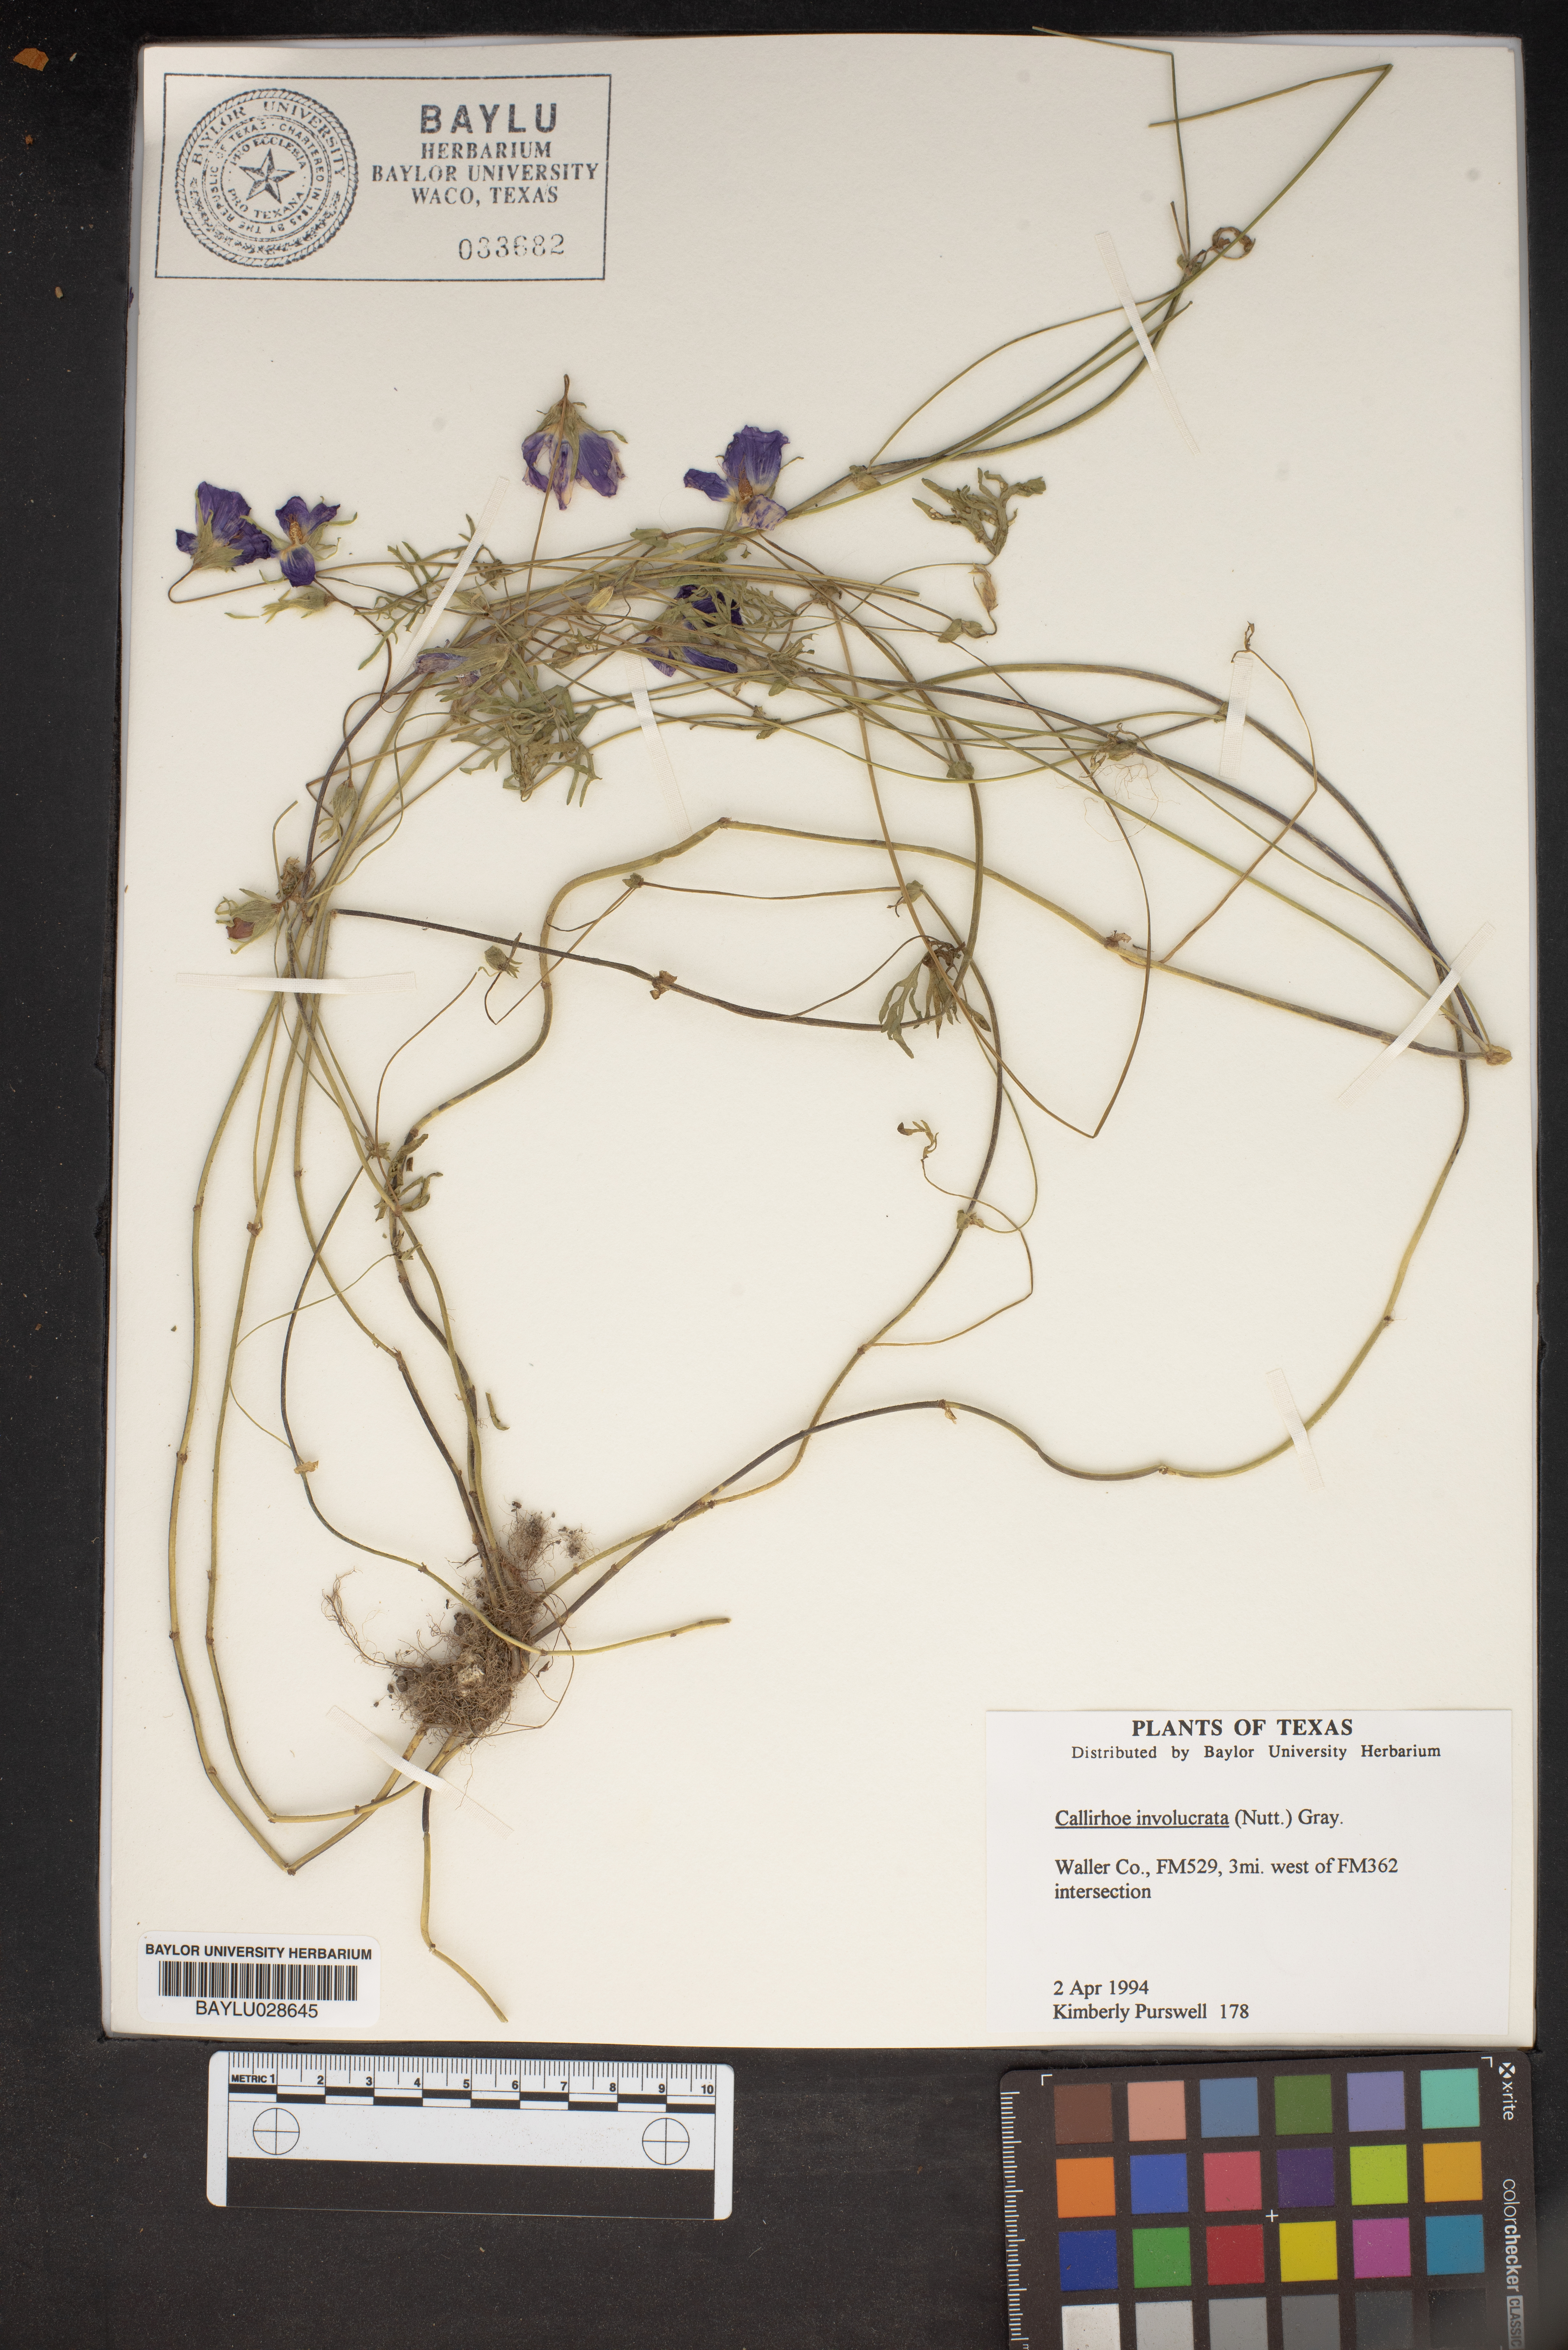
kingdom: Plantae
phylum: Tracheophyta
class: Magnoliopsida
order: Malvales
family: Malvaceae
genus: Callirhoe
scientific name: Callirhoe involucrata
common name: Purple poppy-mallow
